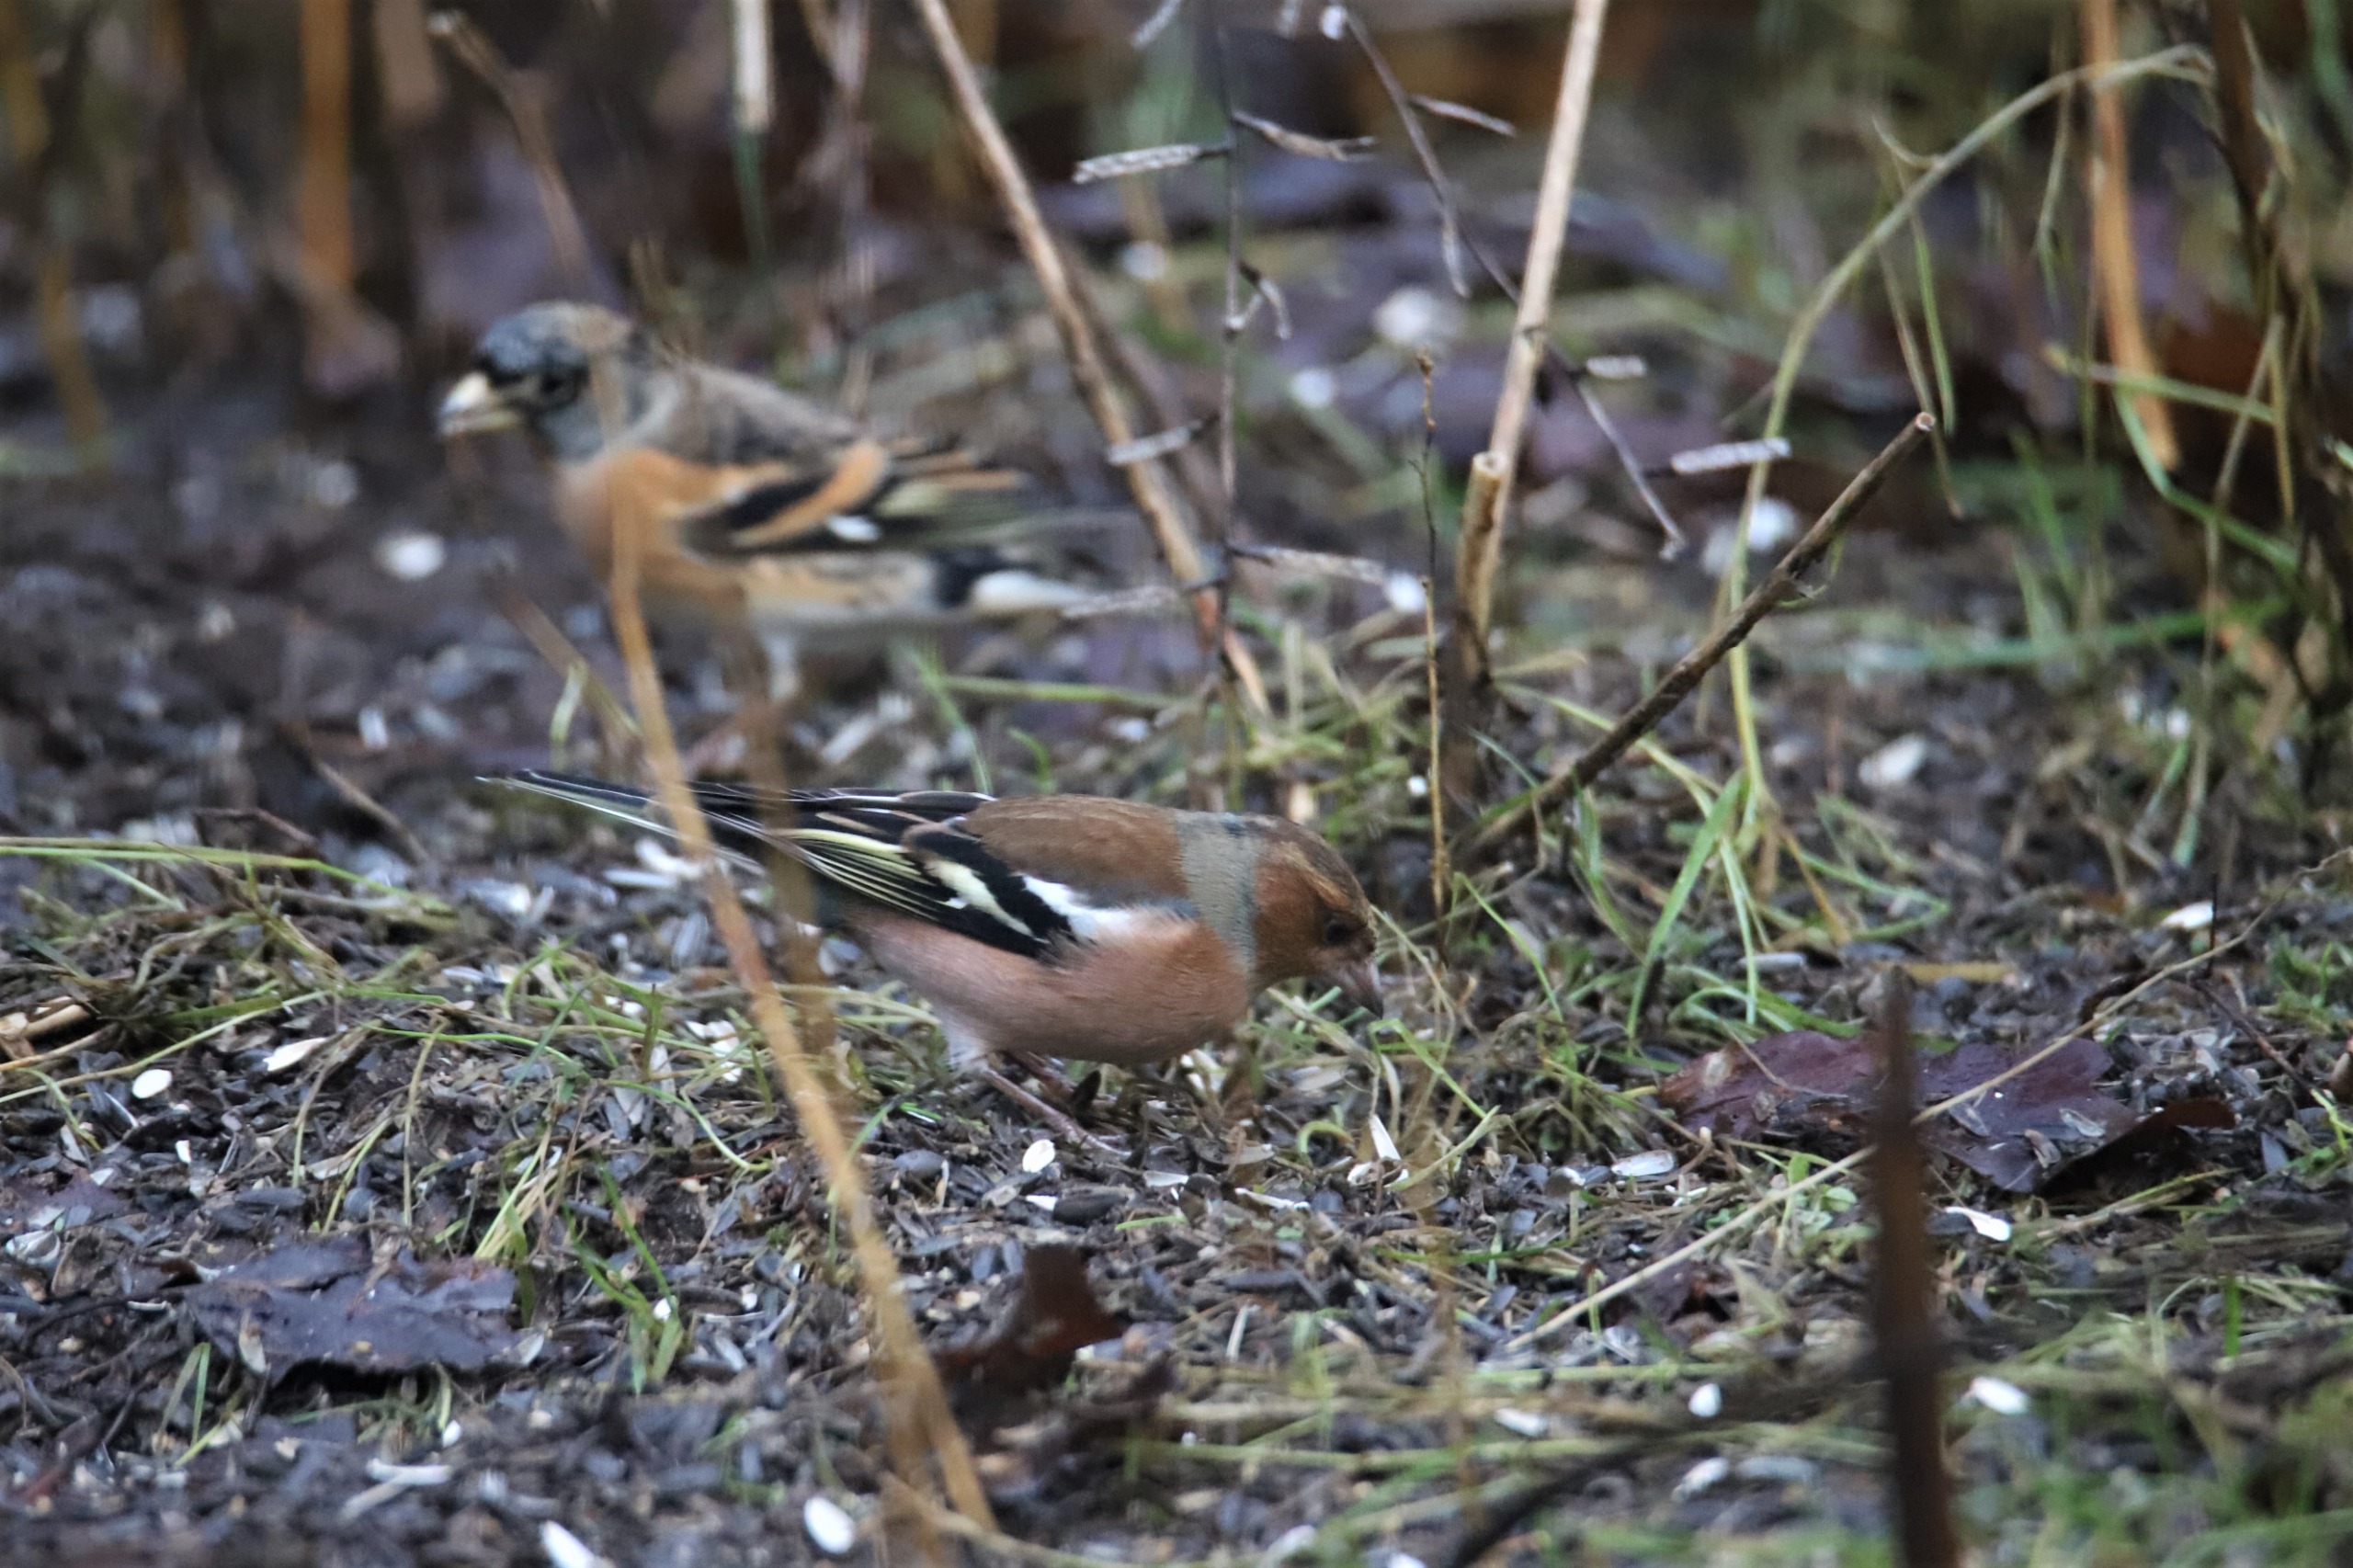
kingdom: Animalia
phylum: Chordata
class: Aves
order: Passeriformes
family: Fringillidae
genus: Fringilla
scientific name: Fringilla coelebs
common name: Bogfinke
